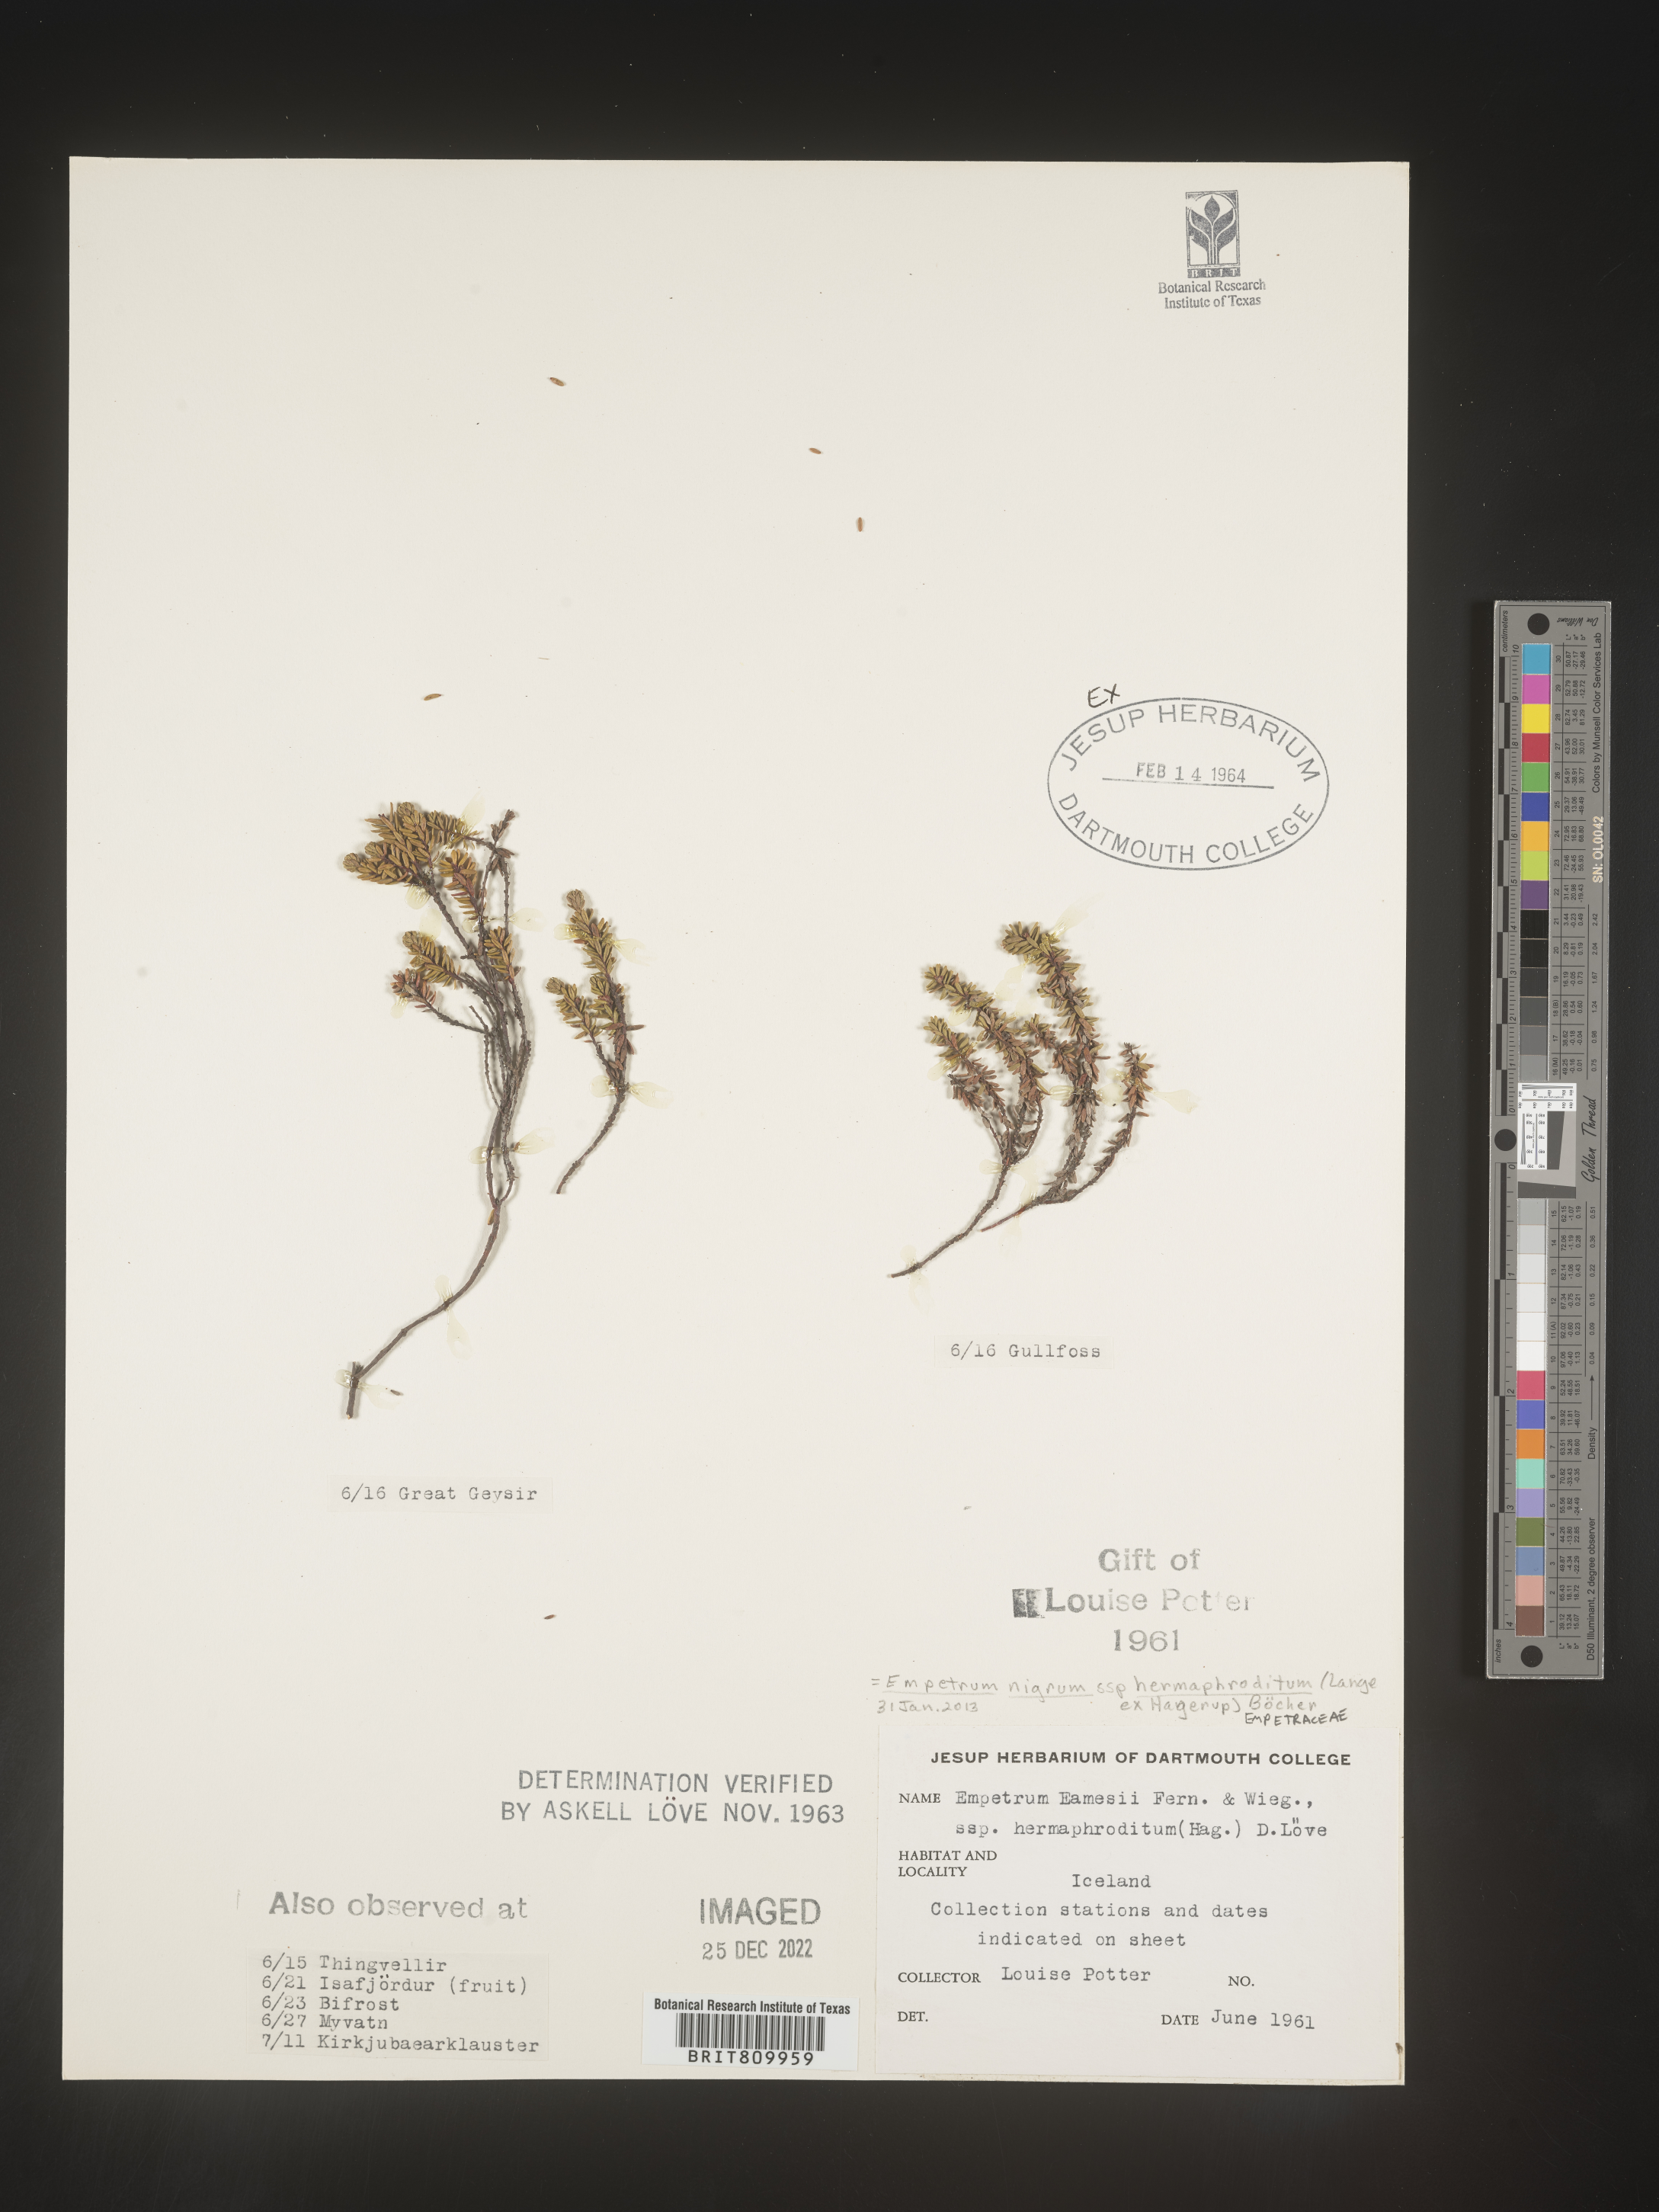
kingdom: Plantae
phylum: Tracheophyta
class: Magnoliopsida
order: Ericales
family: Ericaceae
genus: Empetrum
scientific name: Empetrum
